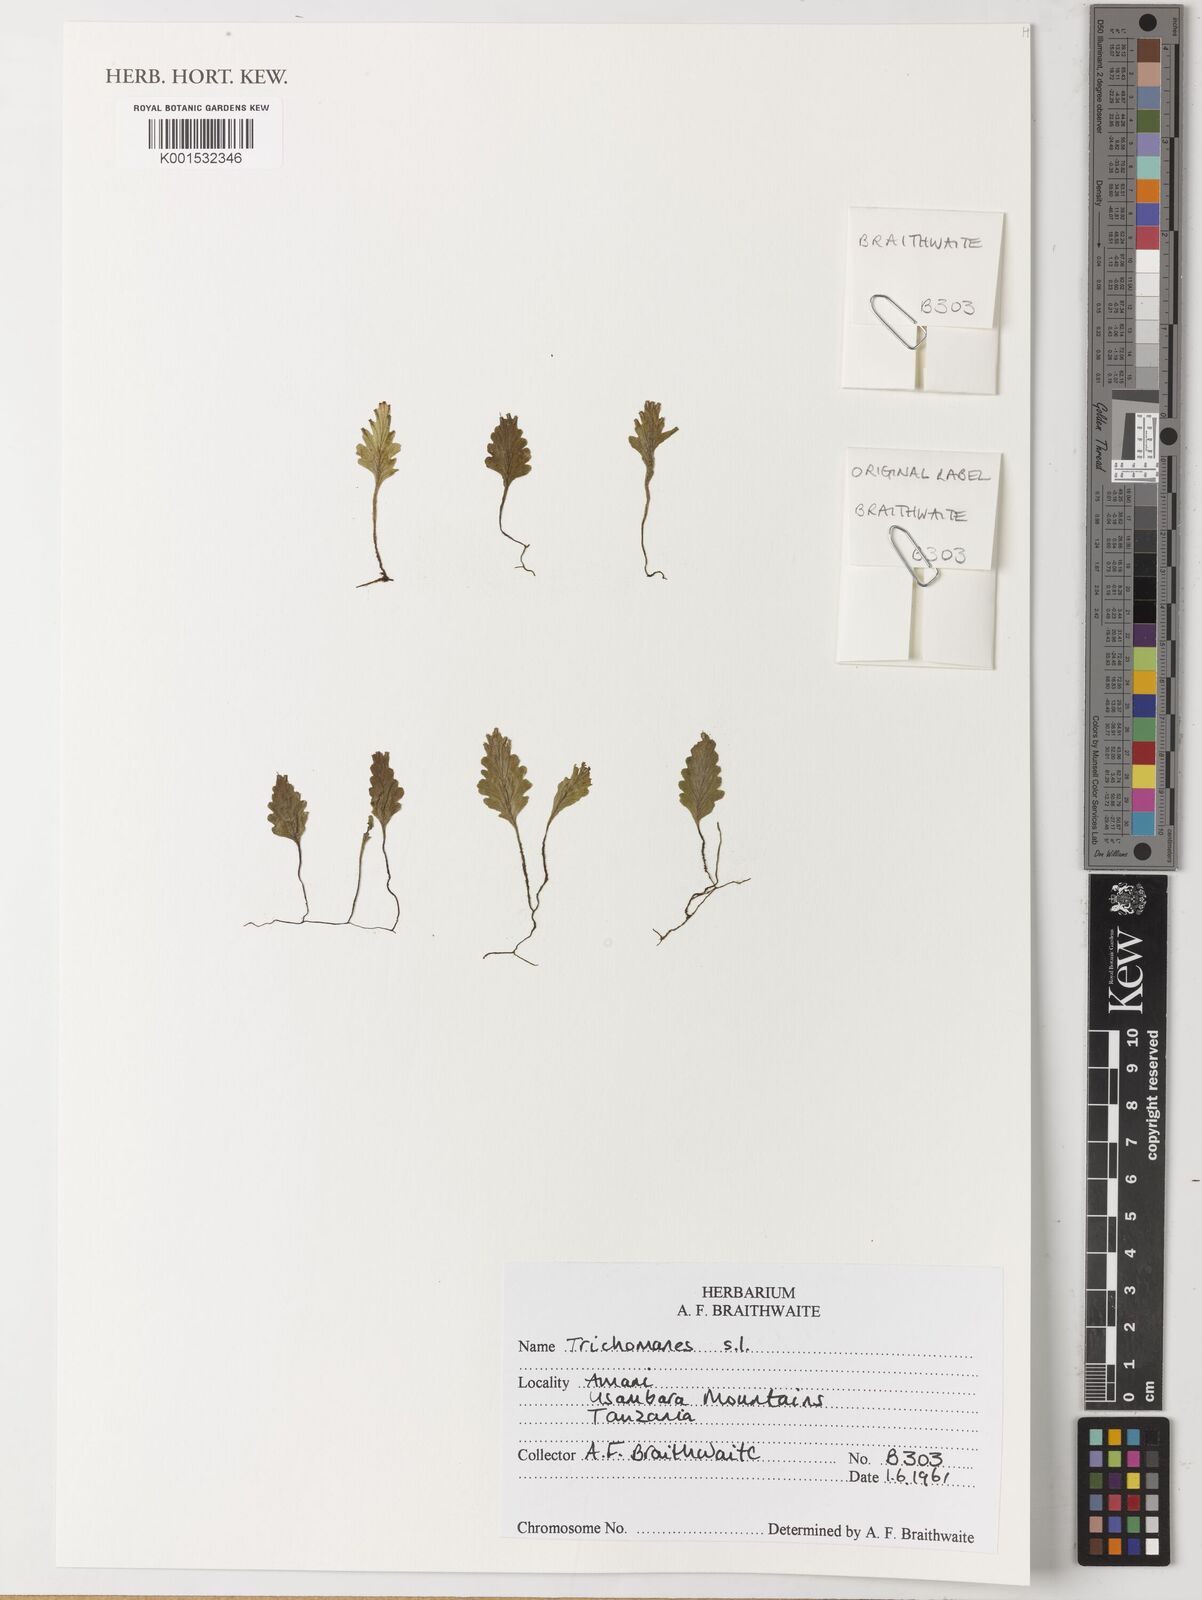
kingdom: Plantae
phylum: Tracheophyta
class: Polypodiopsida
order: Hymenophyllales
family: Hymenophyllaceae
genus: Trichomanes
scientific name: Trichomanes
